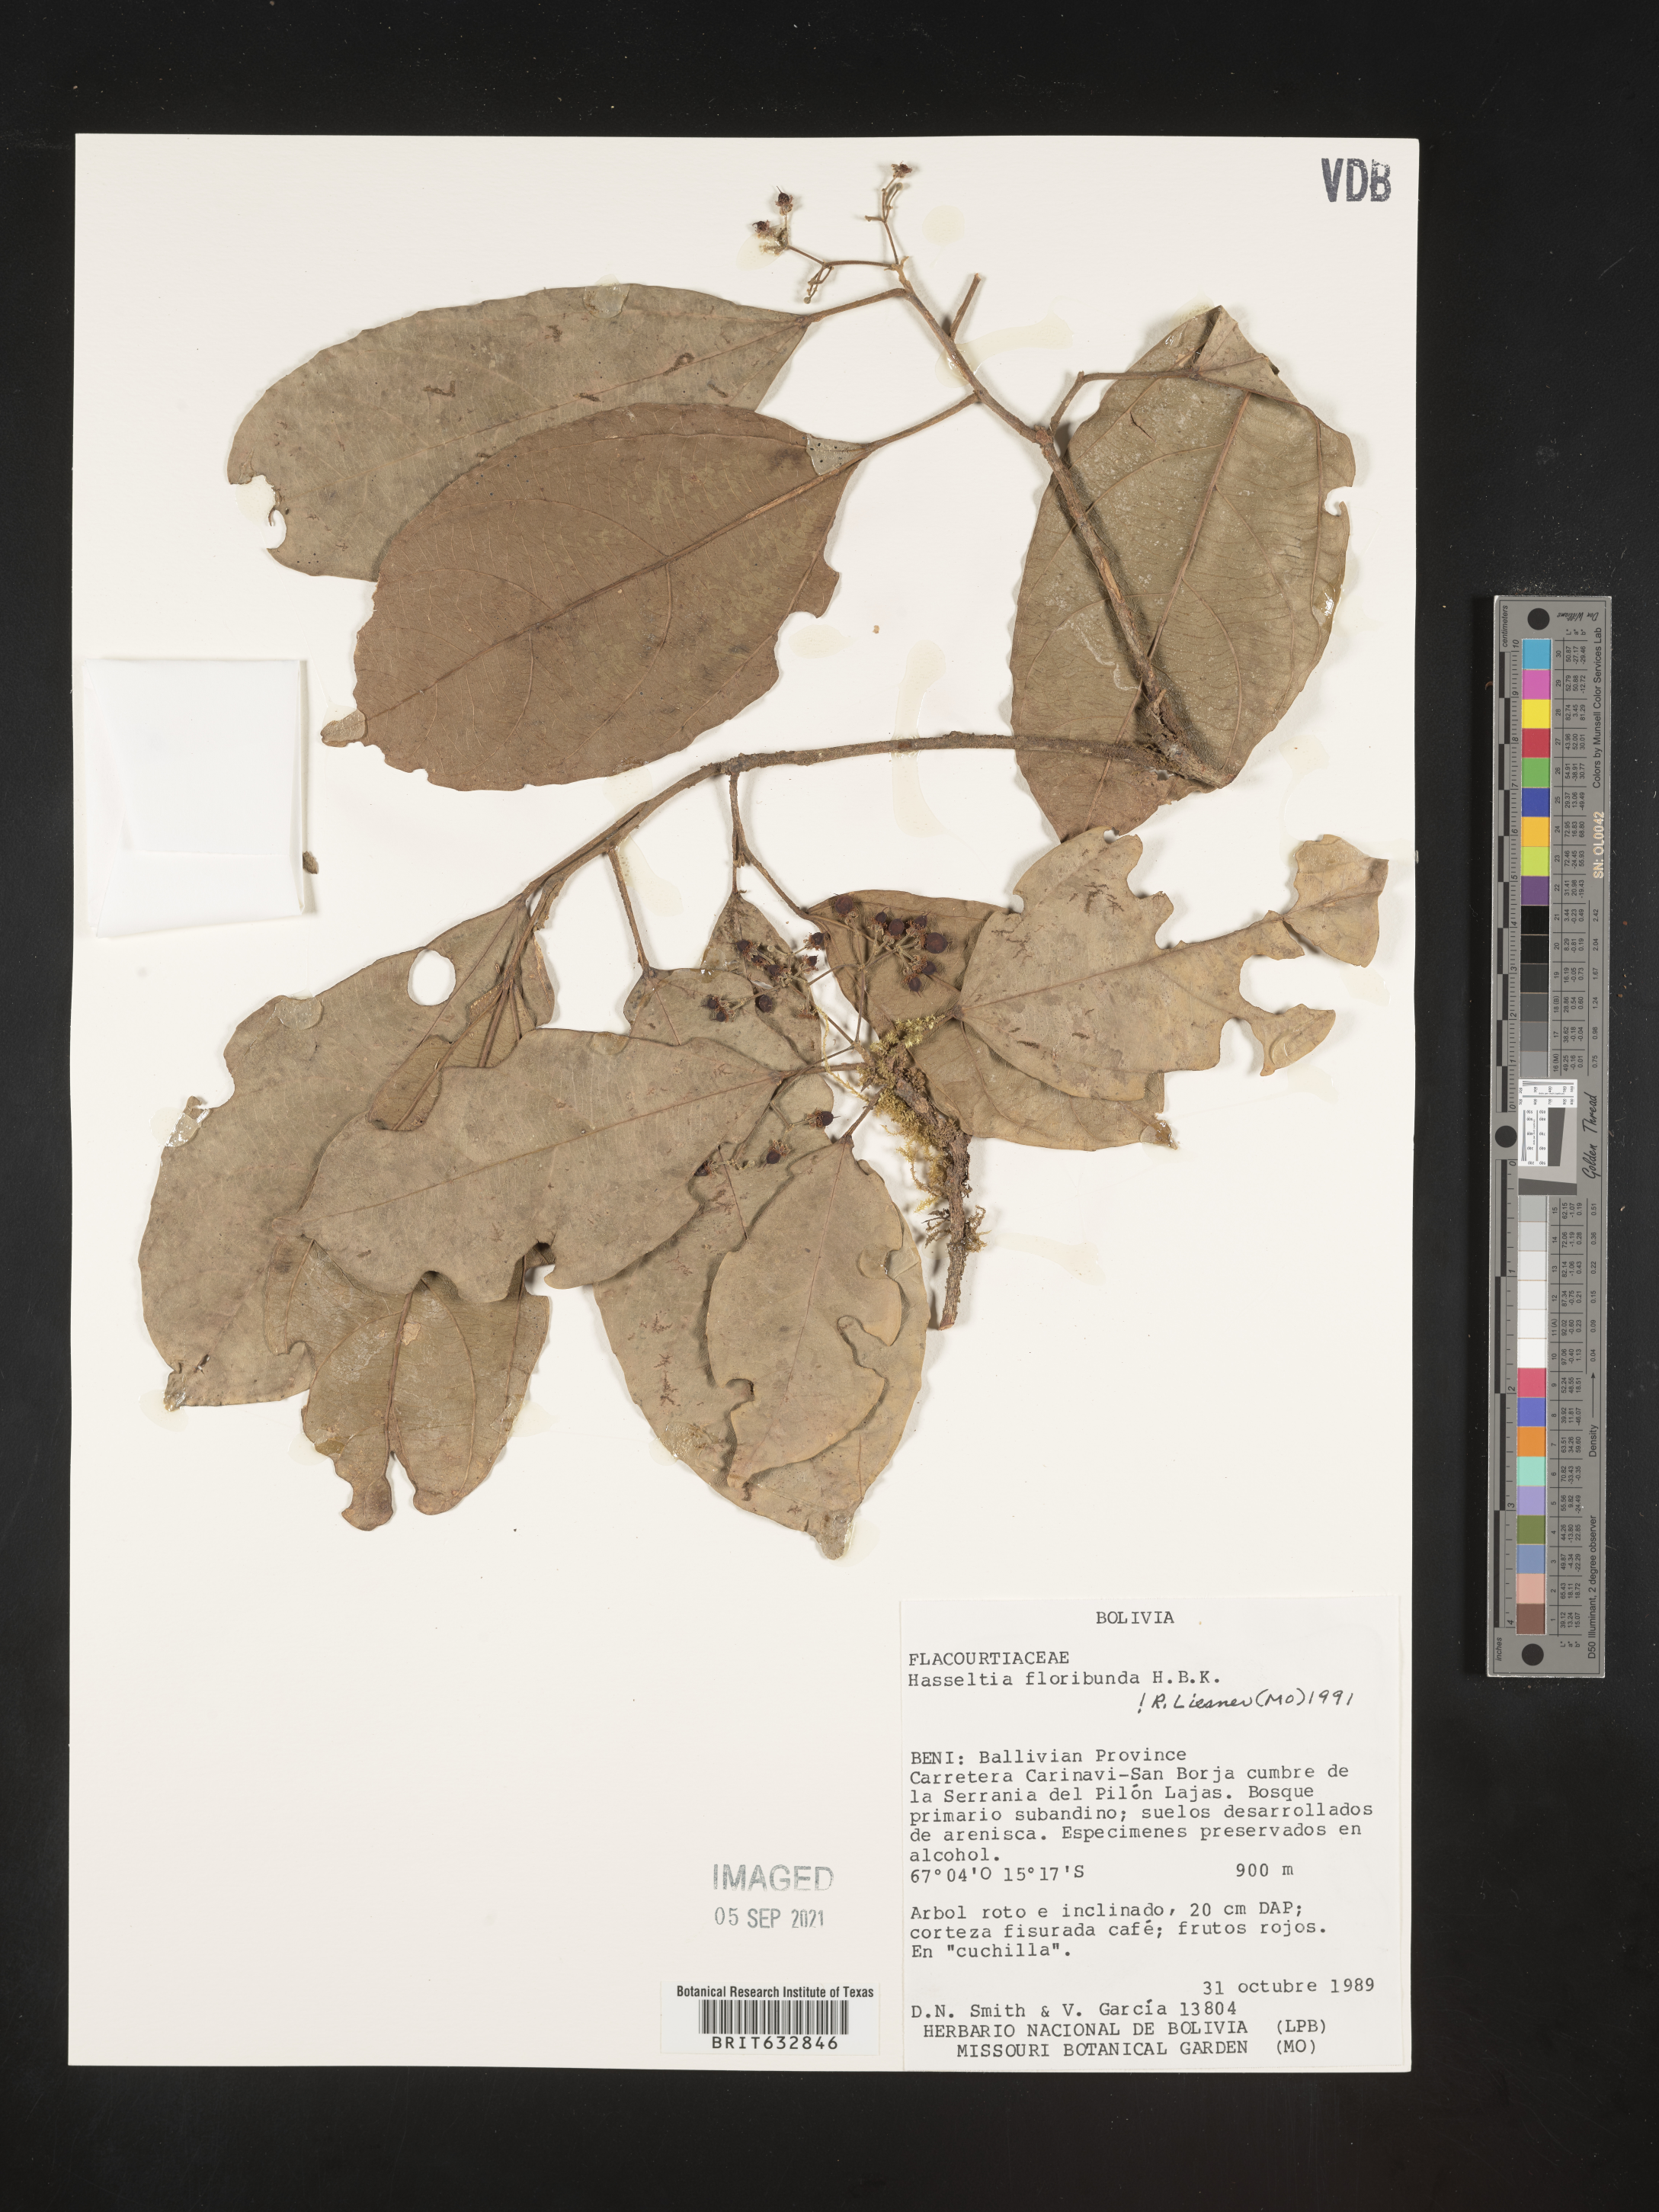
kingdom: Plantae
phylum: Tracheophyta
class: Magnoliopsida
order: Malpighiales
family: Salicaceae
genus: Hasseltia
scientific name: Hasseltia
